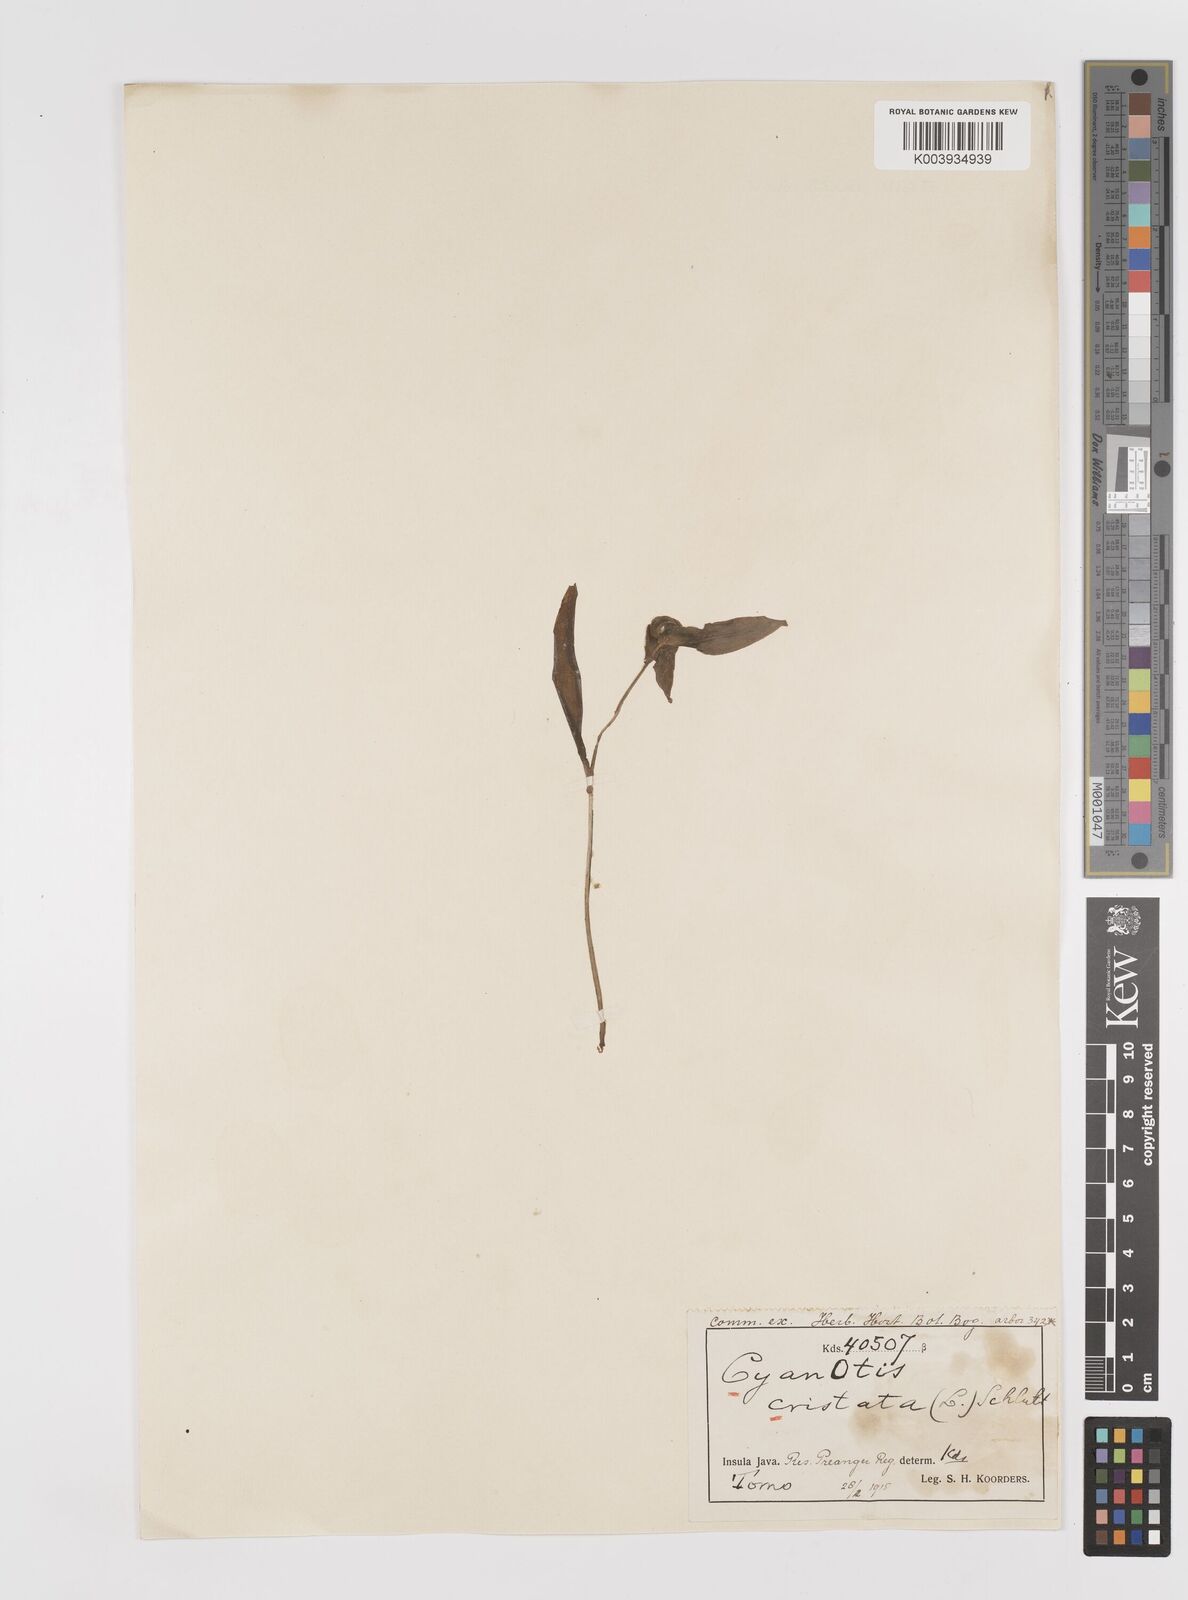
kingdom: Plantae
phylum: Tracheophyta
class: Liliopsida
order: Commelinales
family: Commelinaceae
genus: Cyanotis
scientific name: Cyanotis cristata
